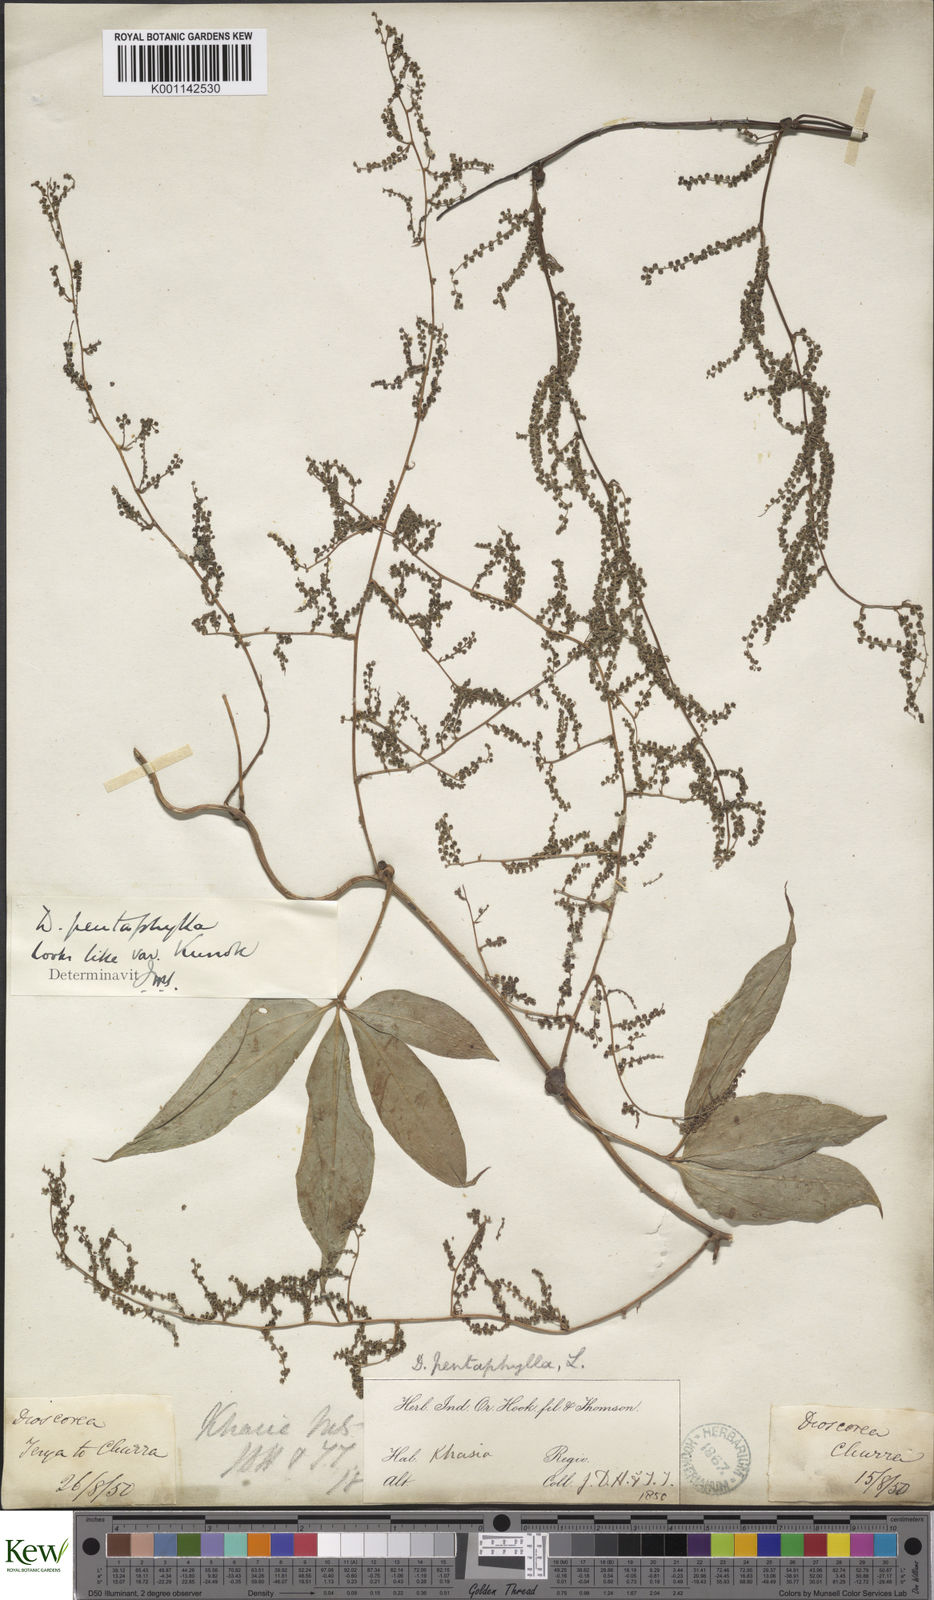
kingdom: Plantae
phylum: Tracheophyta
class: Liliopsida
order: Dioscoreales
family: Dioscoreaceae
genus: Dioscorea
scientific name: Dioscorea pentaphylla
